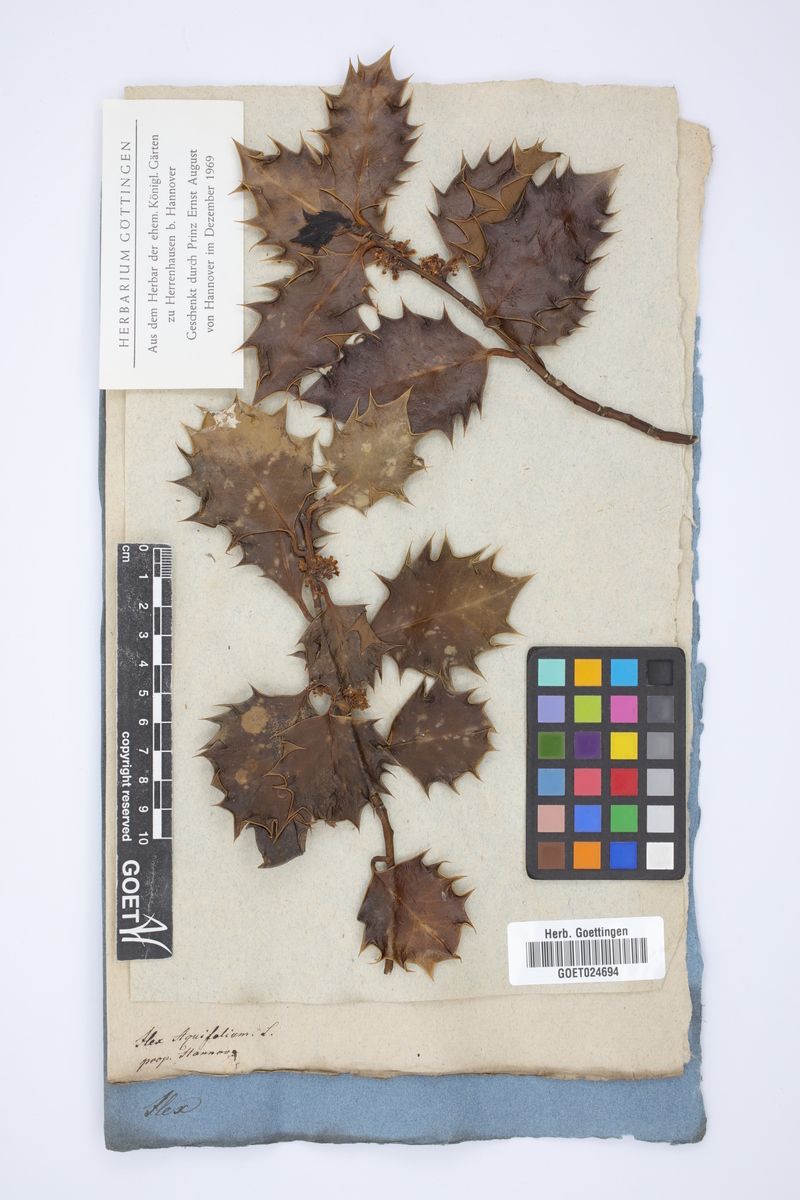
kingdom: Plantae
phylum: Tracheophyta
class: Magnoliopsida
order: Aquifoliales
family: Aquifoliaceae
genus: Ilex
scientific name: Ilex aquifolium
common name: English holly
